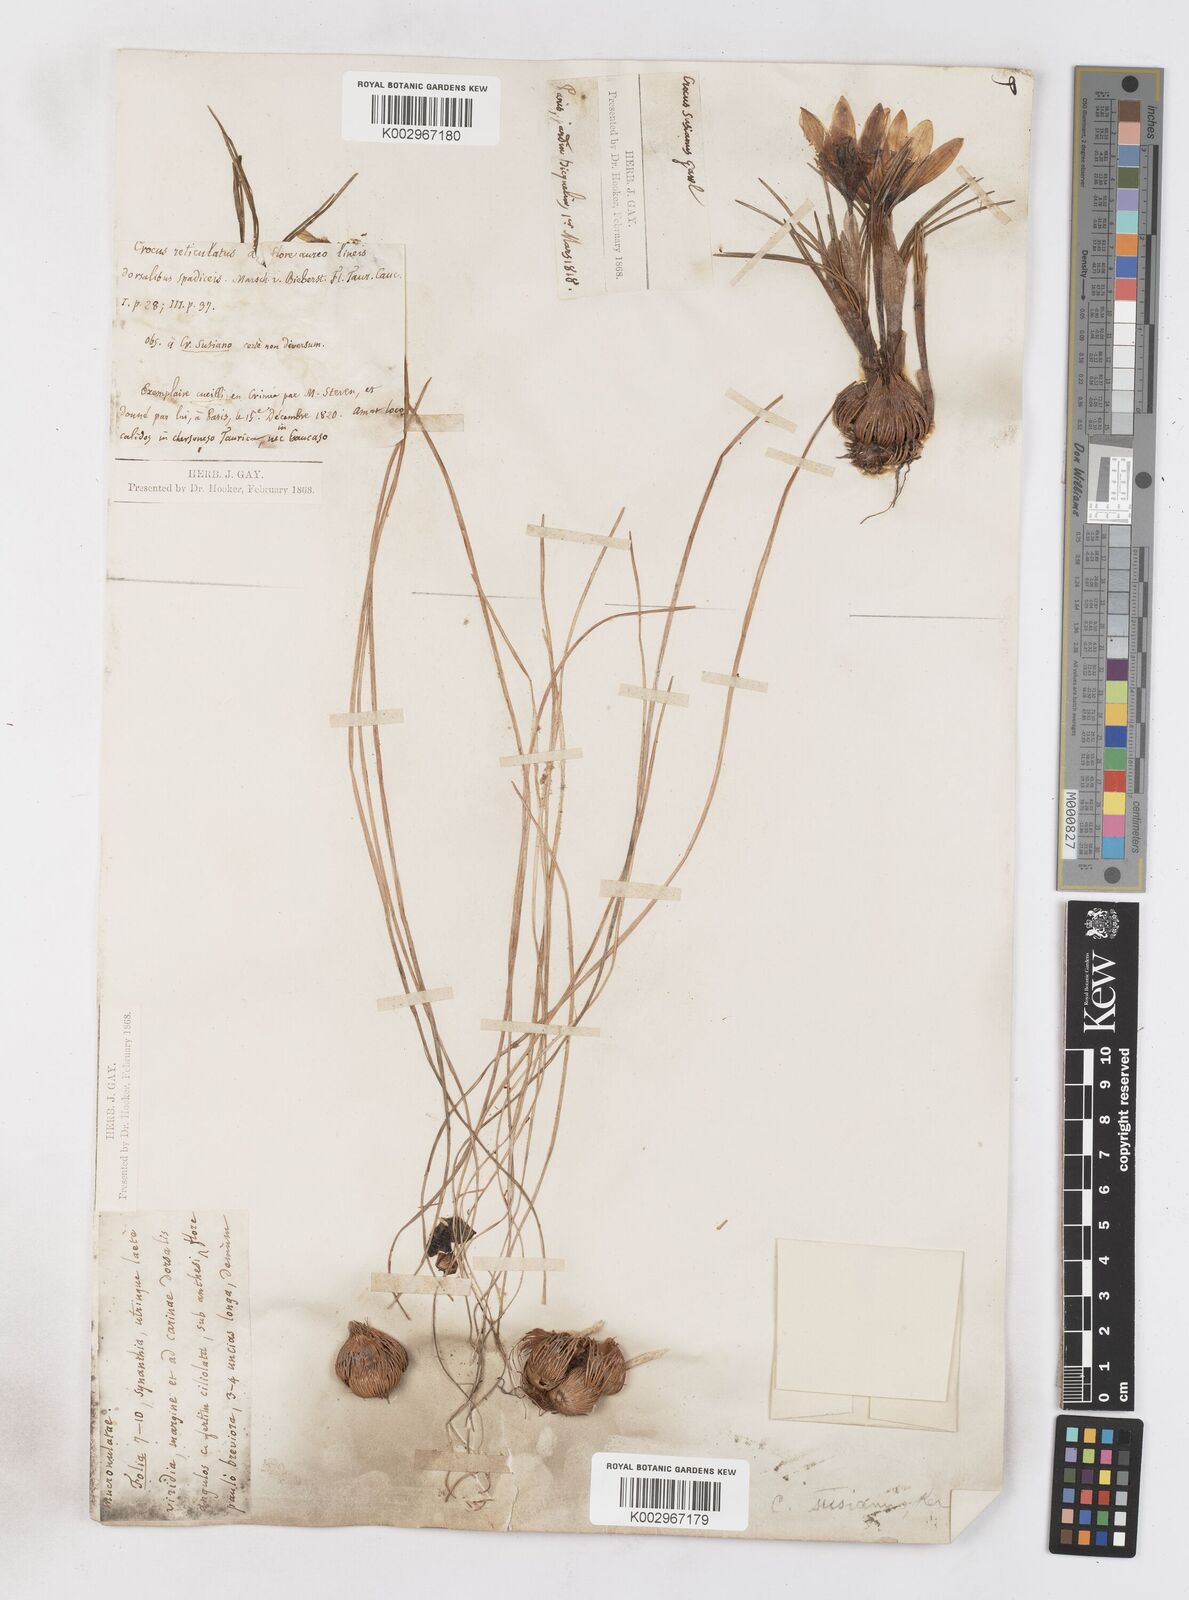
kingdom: Plantae
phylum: Tracheophyta
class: Liliopsida
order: Asparagales
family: Iridaceae
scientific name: Iridaceae
